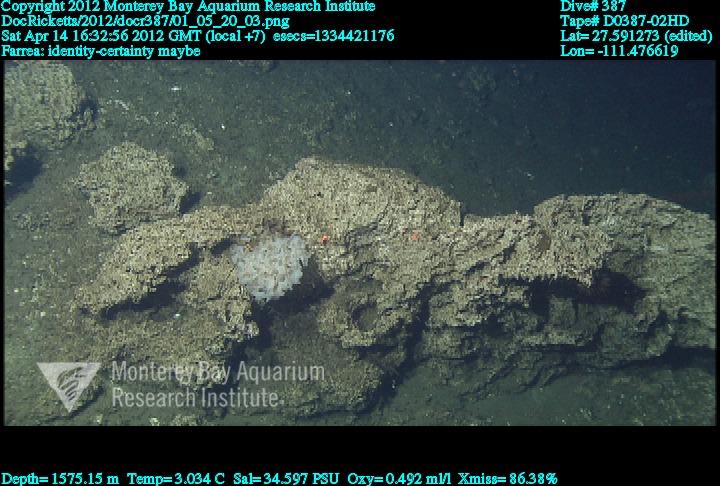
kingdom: Animalia
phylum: Porifera
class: Hexactinellida
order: Sceptrulophora
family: Farreidae
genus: Farrea
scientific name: Farrea
